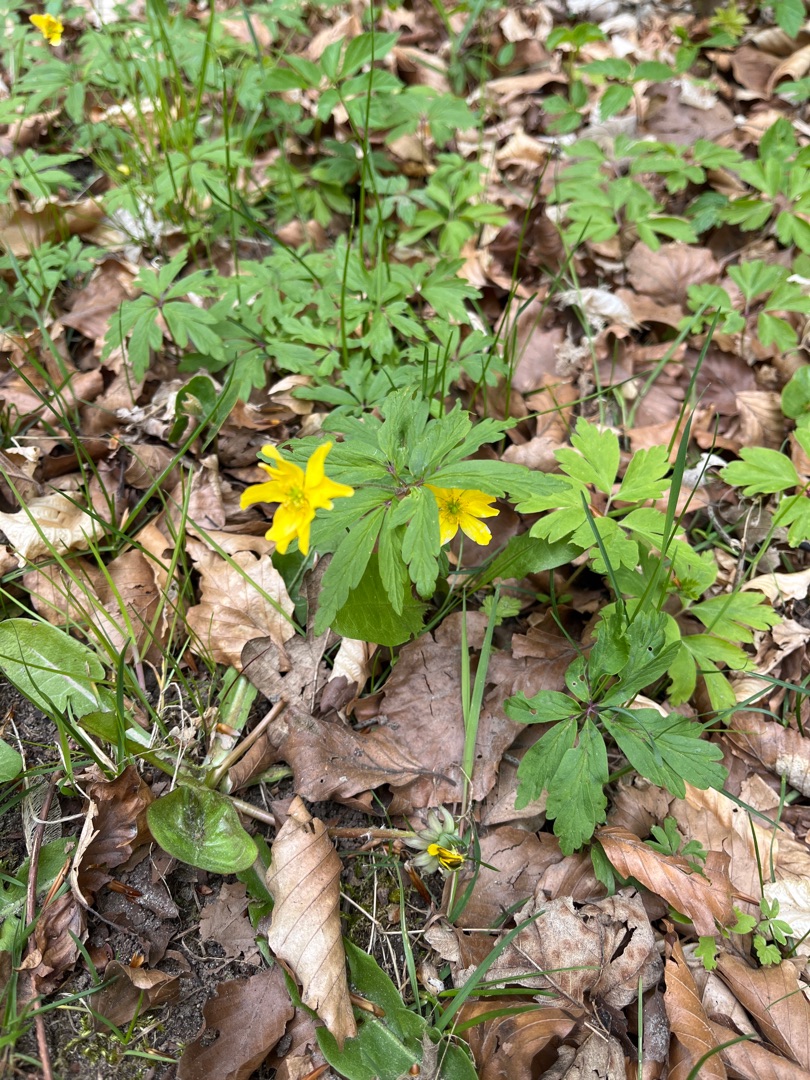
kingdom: Plantae
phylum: Tracheophyta
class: Magnoliopsida
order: Ranunculales
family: Ranunculaceae
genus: Anemone
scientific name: Anemone ranunculoides
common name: Gul anemone
